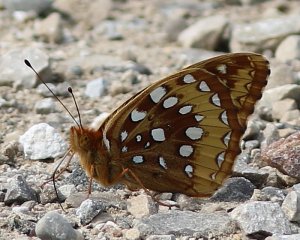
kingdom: Animalia
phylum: Arthropoda
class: Insecta
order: Lepidoptera
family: Nymphalidae
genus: Speyeria
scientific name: Speyeria cybele
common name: Great Spangled Fritillary
